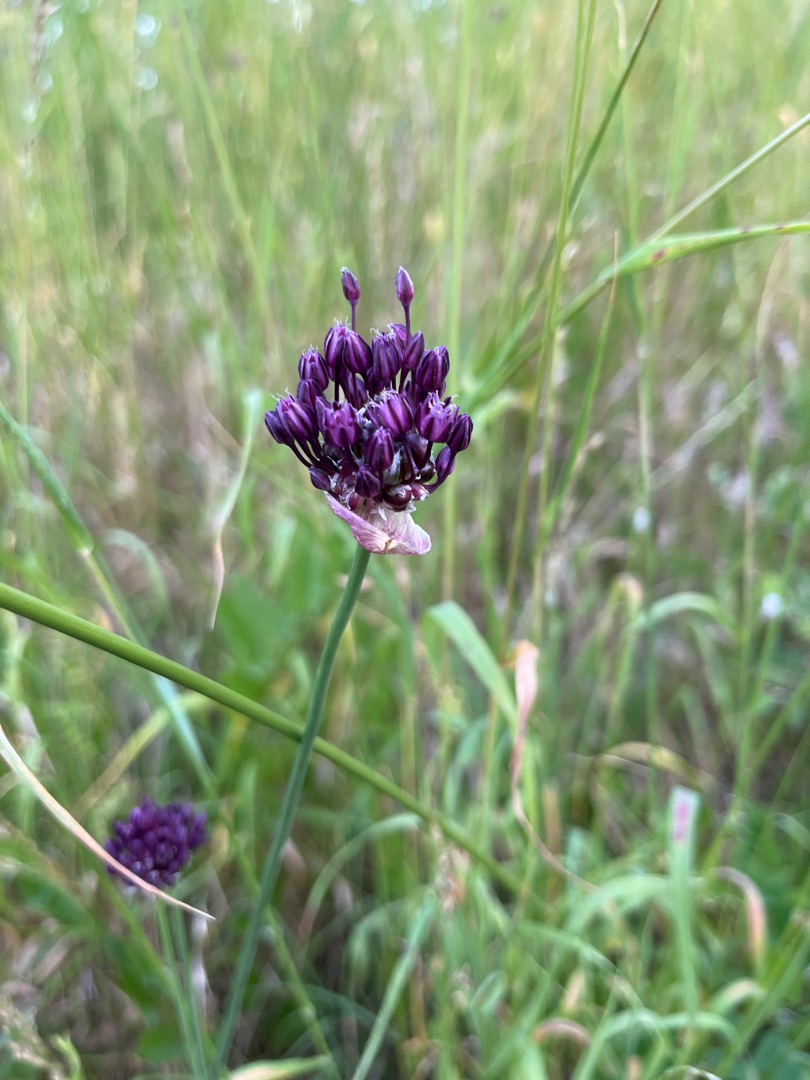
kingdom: Plantae
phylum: Tracheophyta
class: Liliopsida
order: Asparagales
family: Amaryllidaceae
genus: Allium
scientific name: Allium scorodoprasum
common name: Skov-løg
